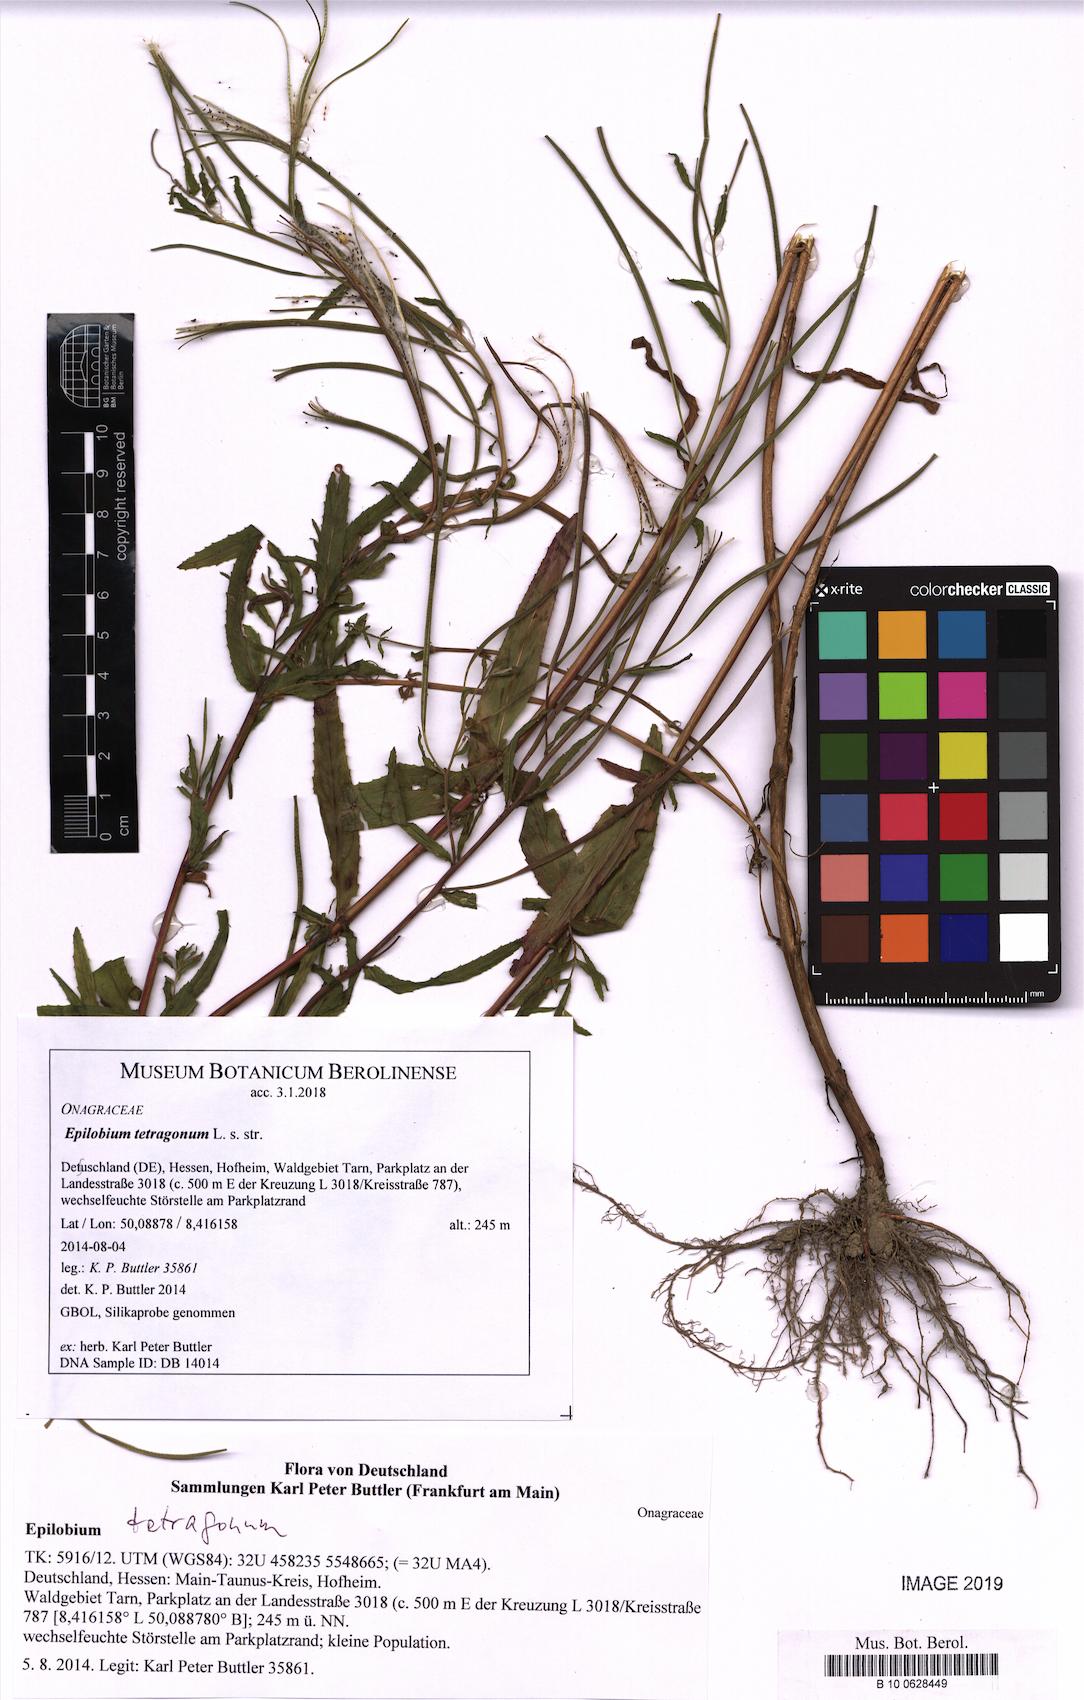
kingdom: Plantae
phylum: Tracheophyta
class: Magnoliopsida
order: Myrtales
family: Onagraceae
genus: Epilobium
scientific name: Epilobium tetragonum
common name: Square-stemmed willowherb
